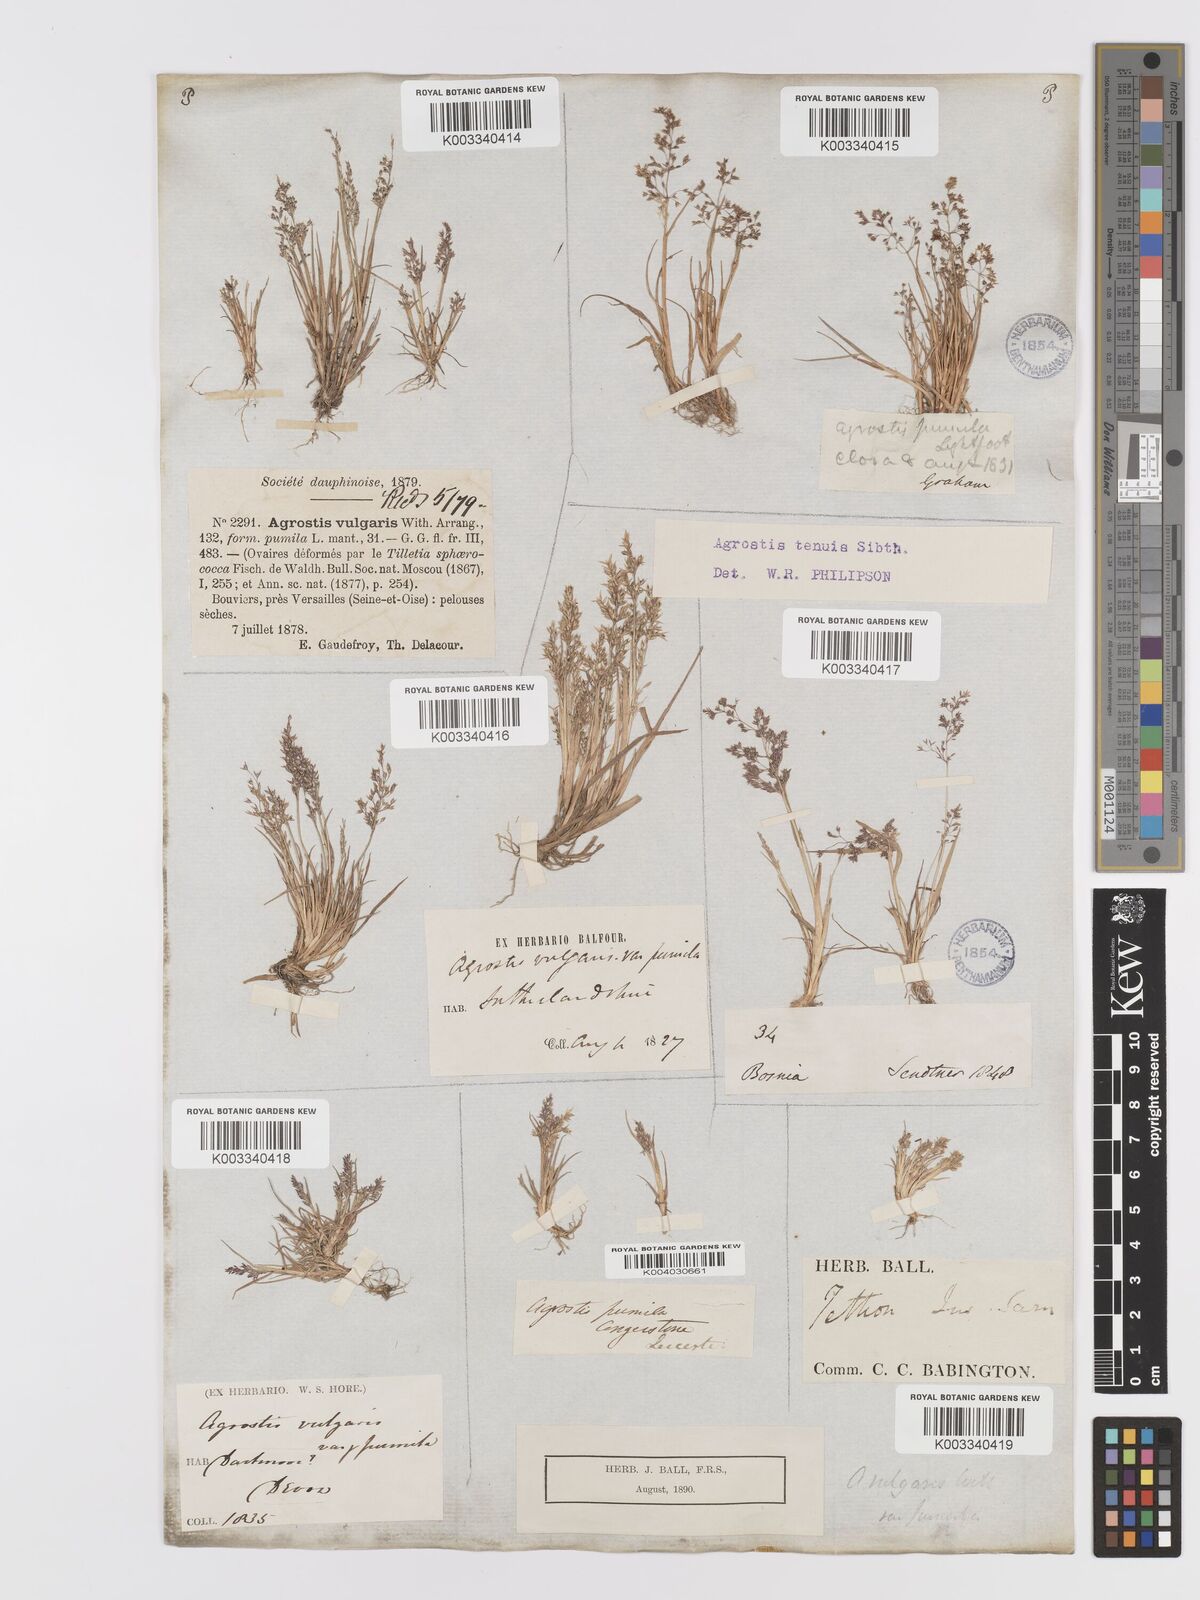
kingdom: Plantae
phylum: Tracheophyta
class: Liliopsida
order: Poales
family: Poaceae
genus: Agrostis
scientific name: Agrostis capillaris
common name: Colonial bentgrass
